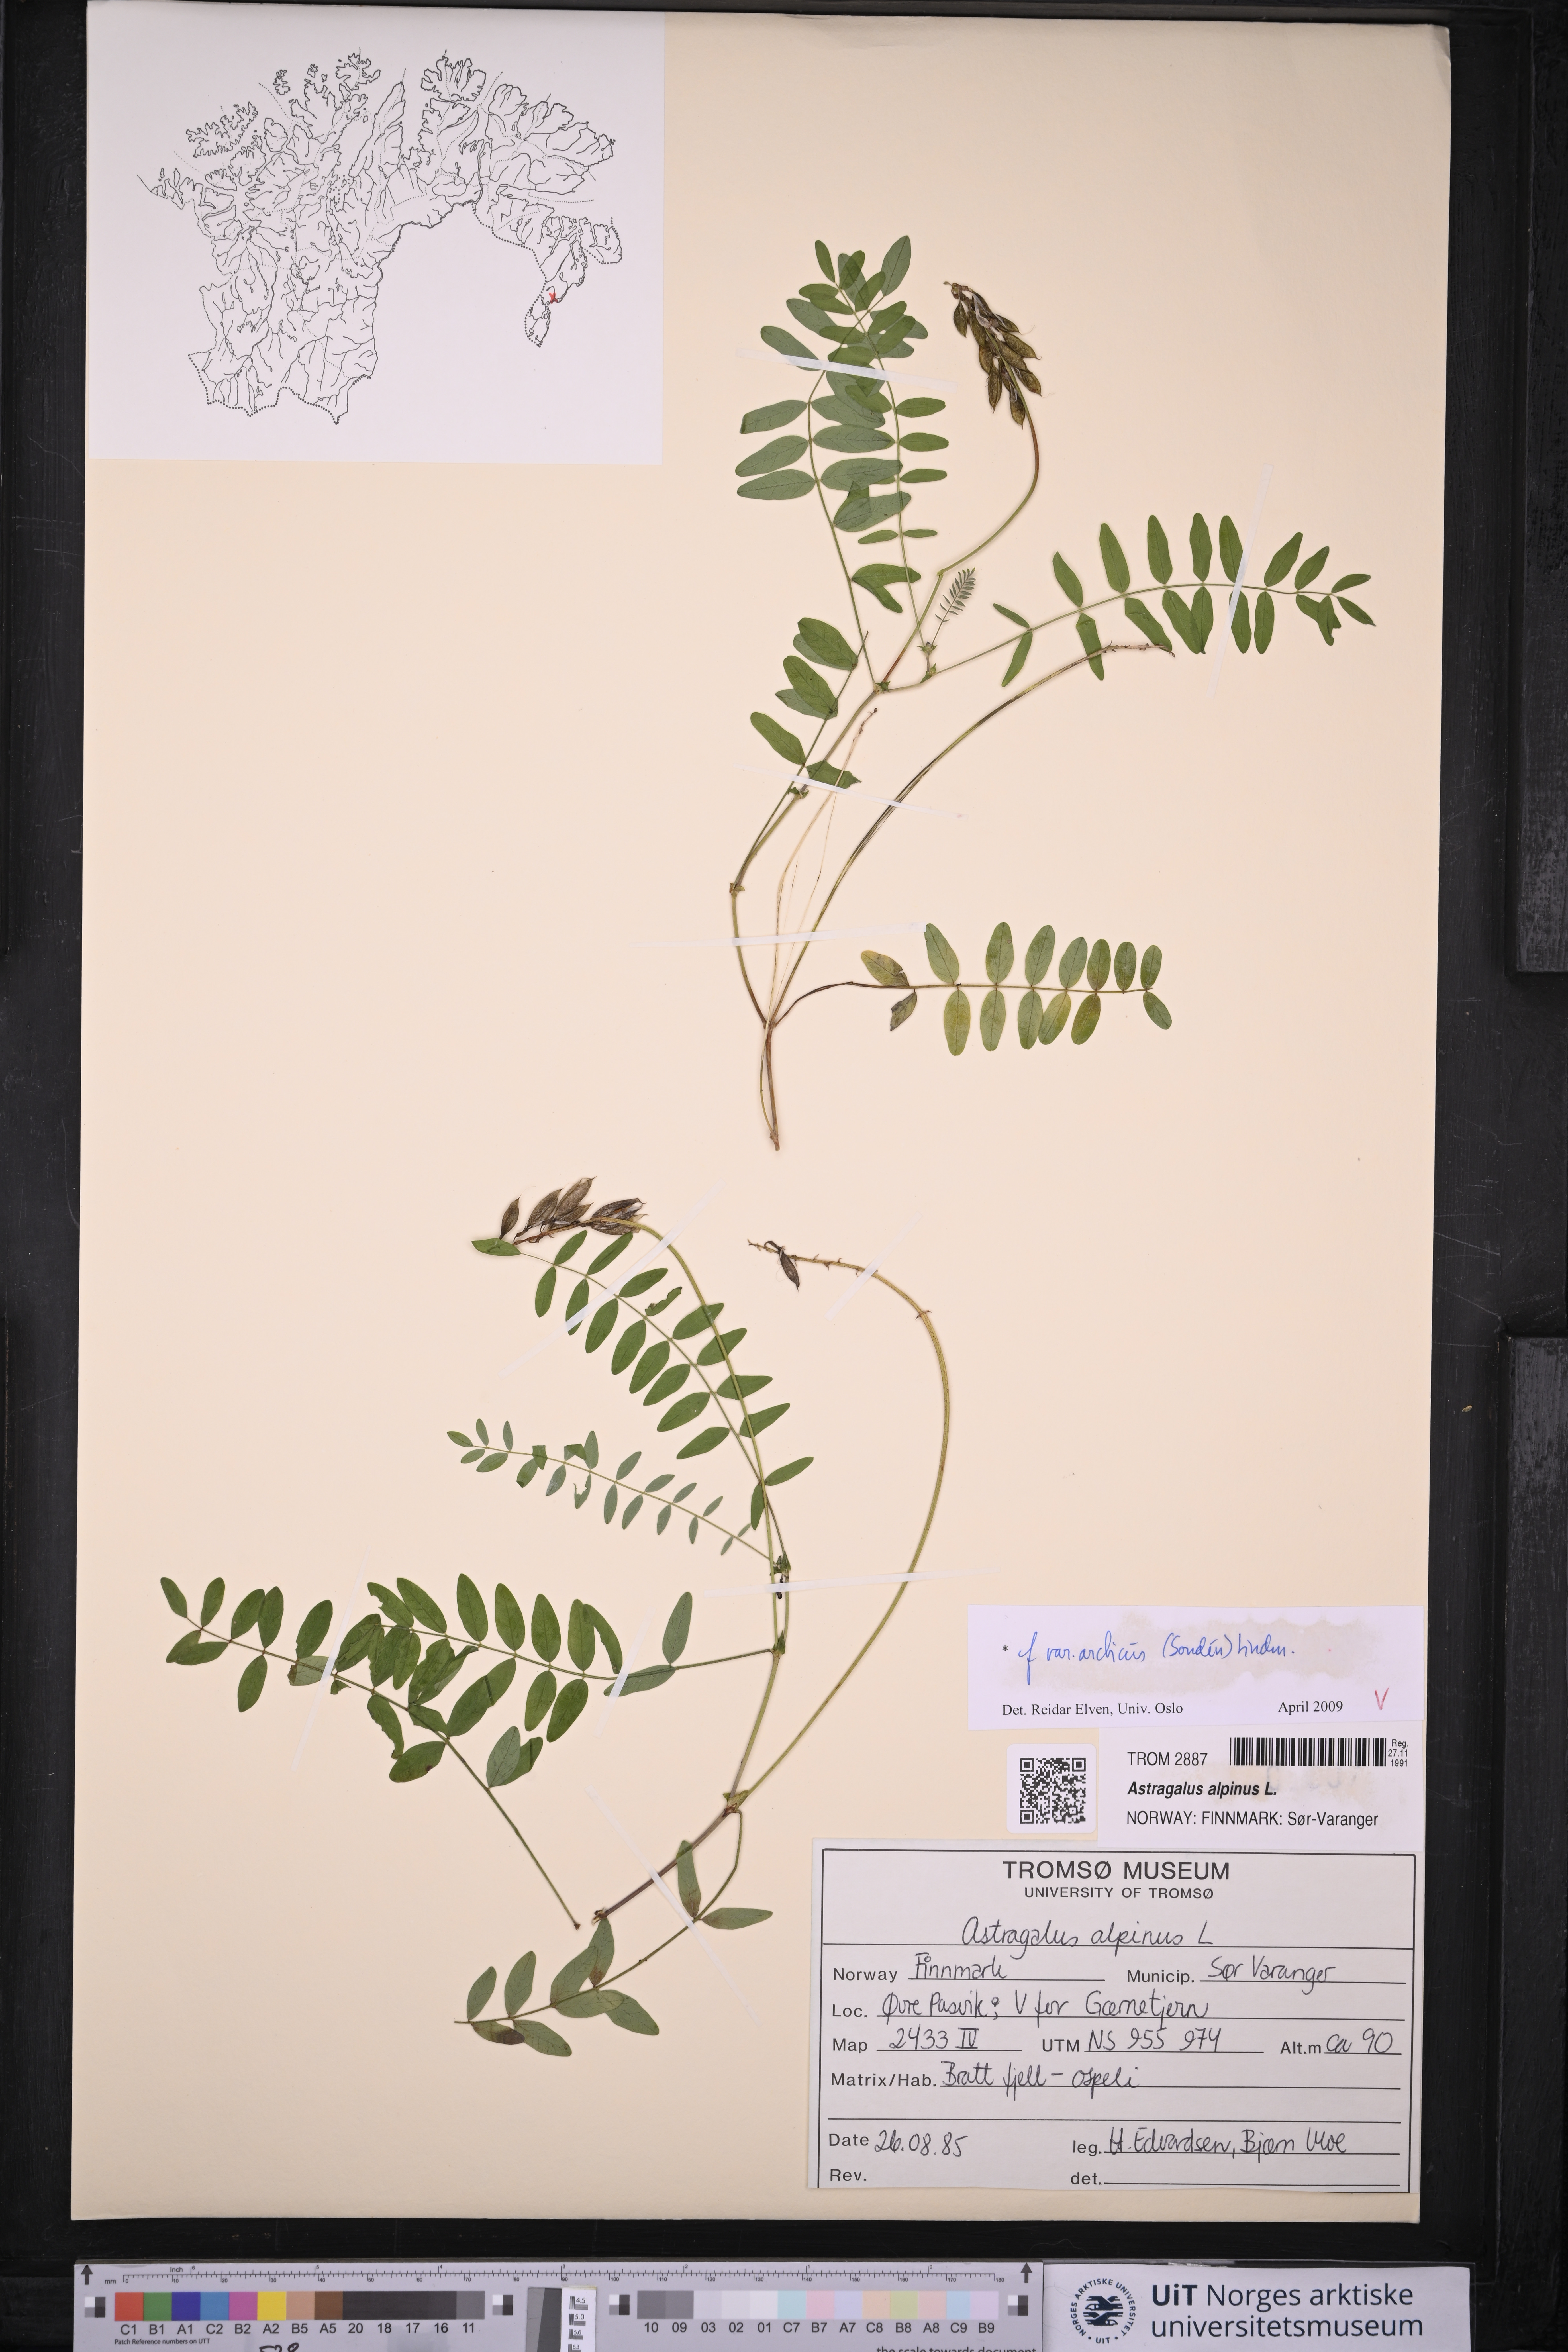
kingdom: Plantae
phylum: Tracheophyta
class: Magnoliopsida
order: Fabales
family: Fabaceae
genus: Astragalus
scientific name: Astragalus norvegicus
